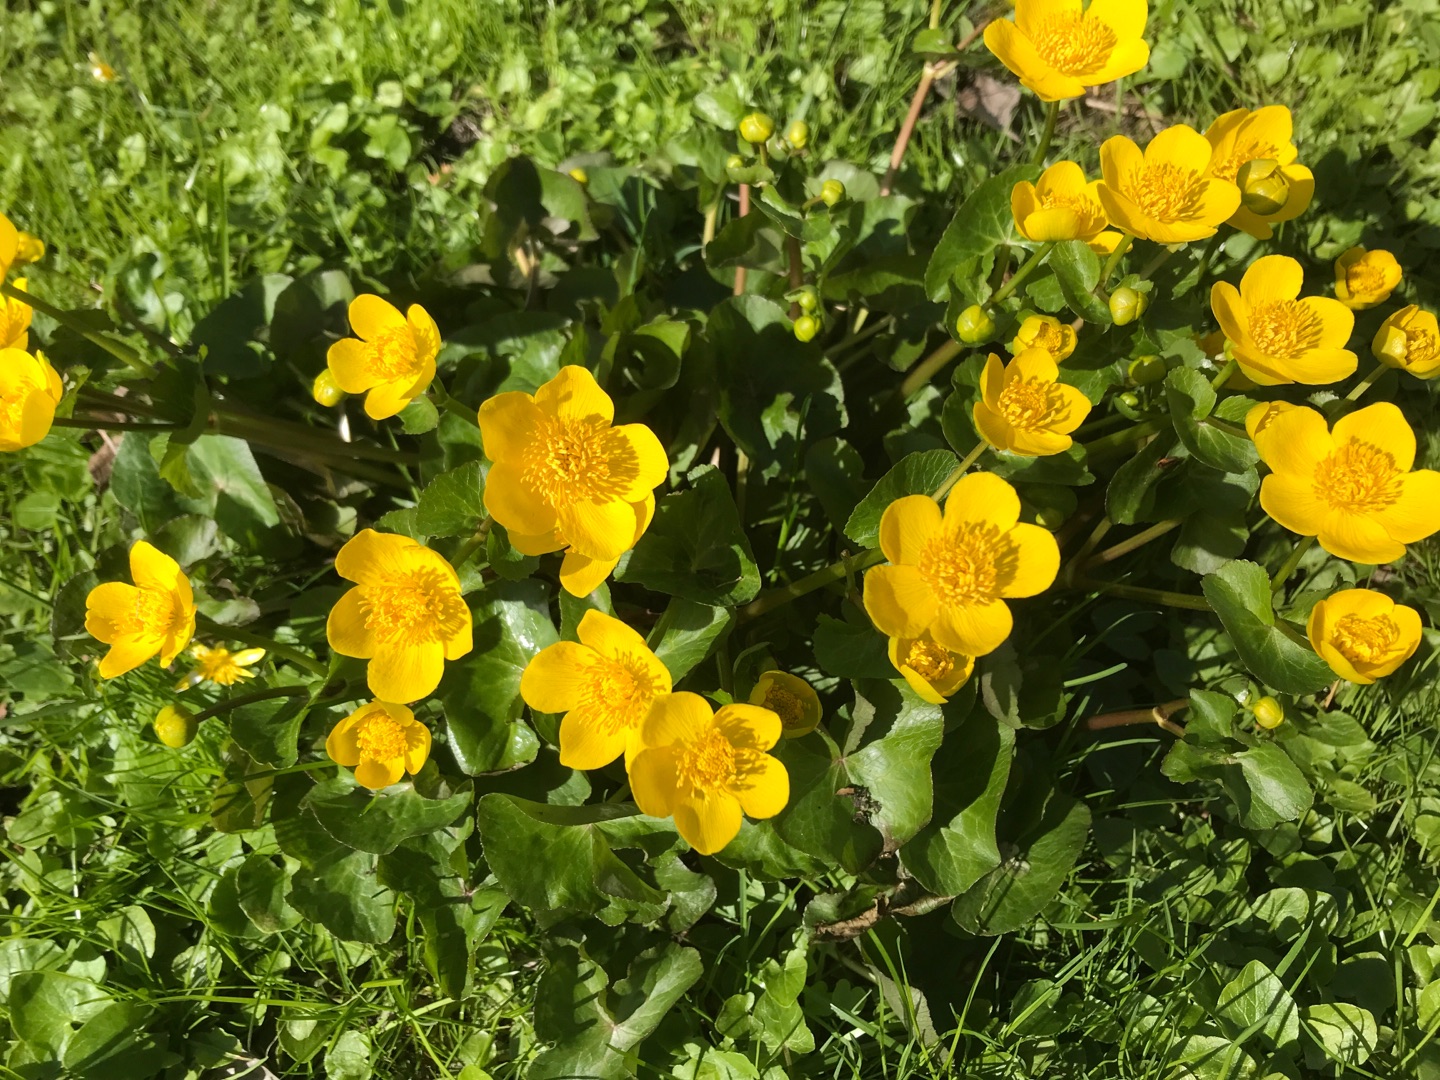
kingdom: Plantae
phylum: Tracheophyta
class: Magnoliopsida
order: Ranunculales
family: Ranunculaceae
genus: Caltha
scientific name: Caltha palustris
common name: Eng-kabbeleje
